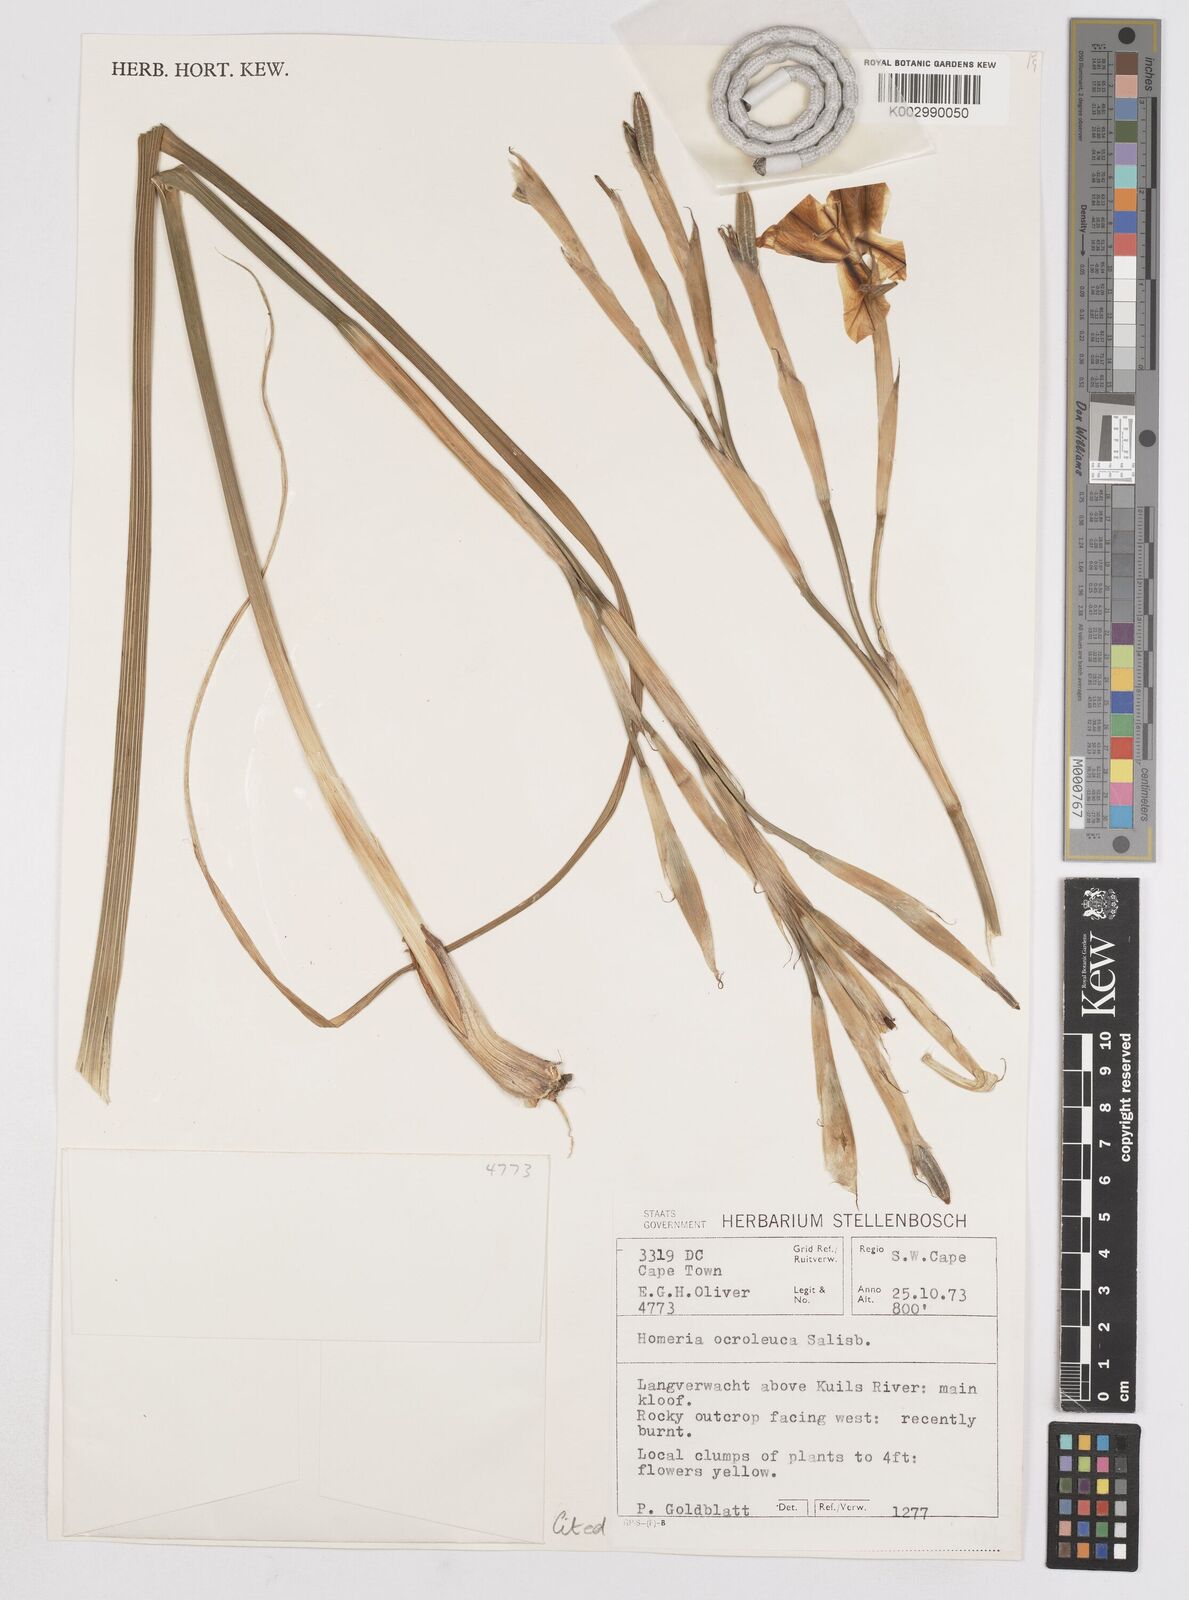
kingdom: Plantae
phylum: Tracheophyta
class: Liliopsida
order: Asparagales
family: Iridaceae
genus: Moraea
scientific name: Moraea ochroleuca
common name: Red tulp
